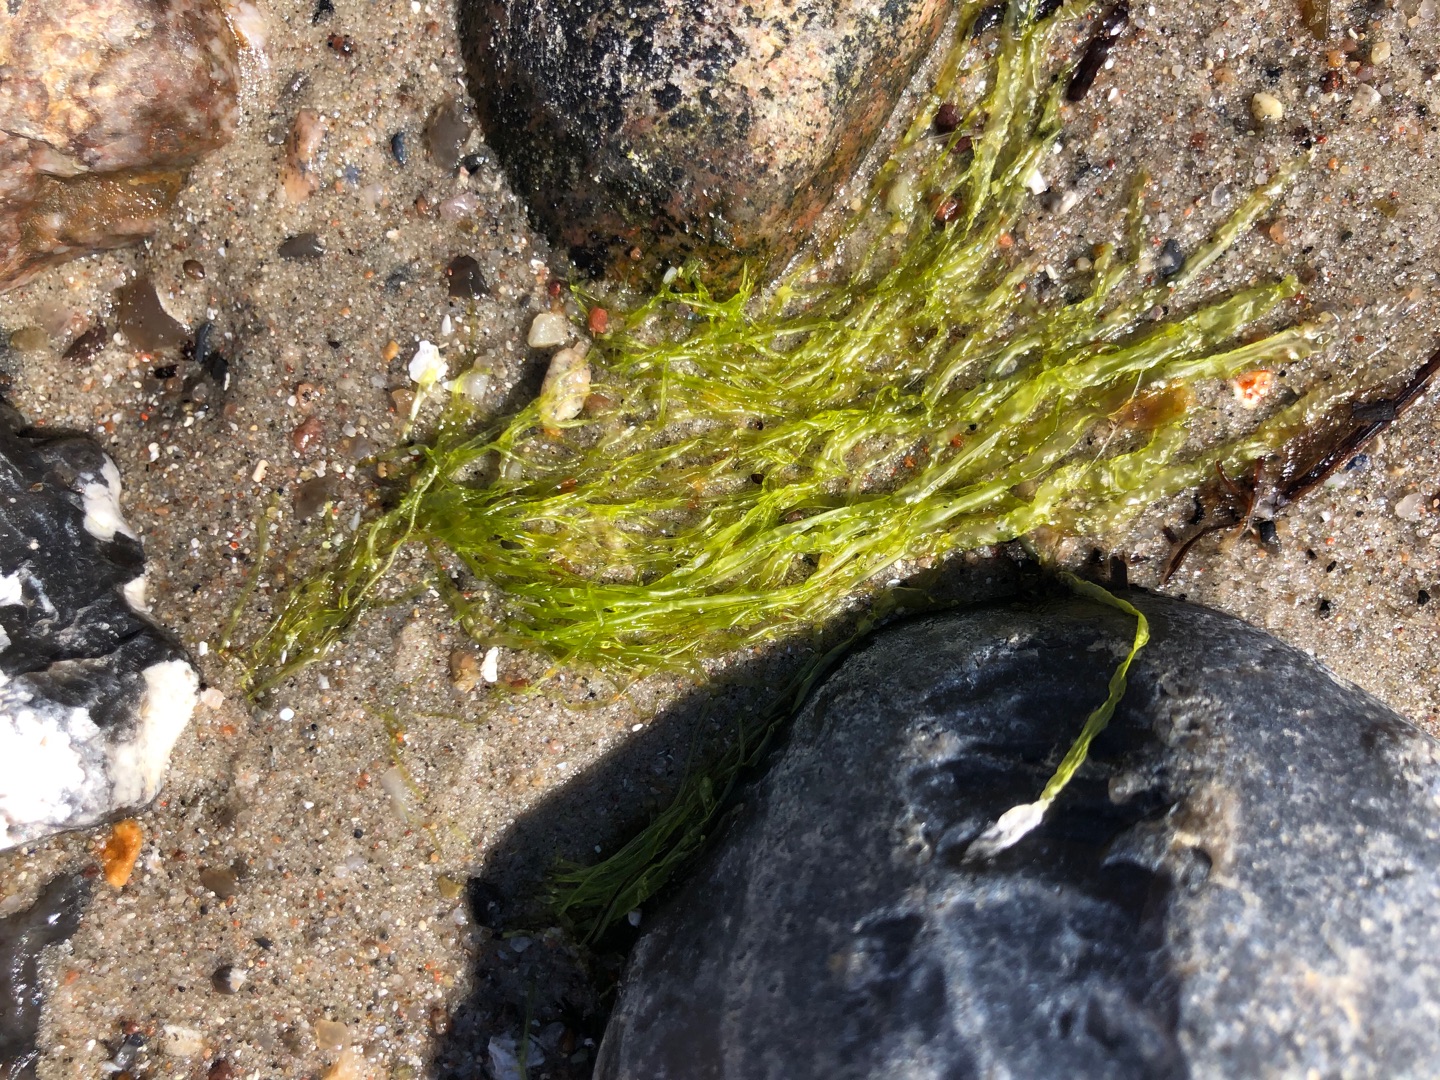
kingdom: Plantae
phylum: Chlorophyta
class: Ulvophyceae
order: Ulvales
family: Ulvaceae
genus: Ulva
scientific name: Ulva
